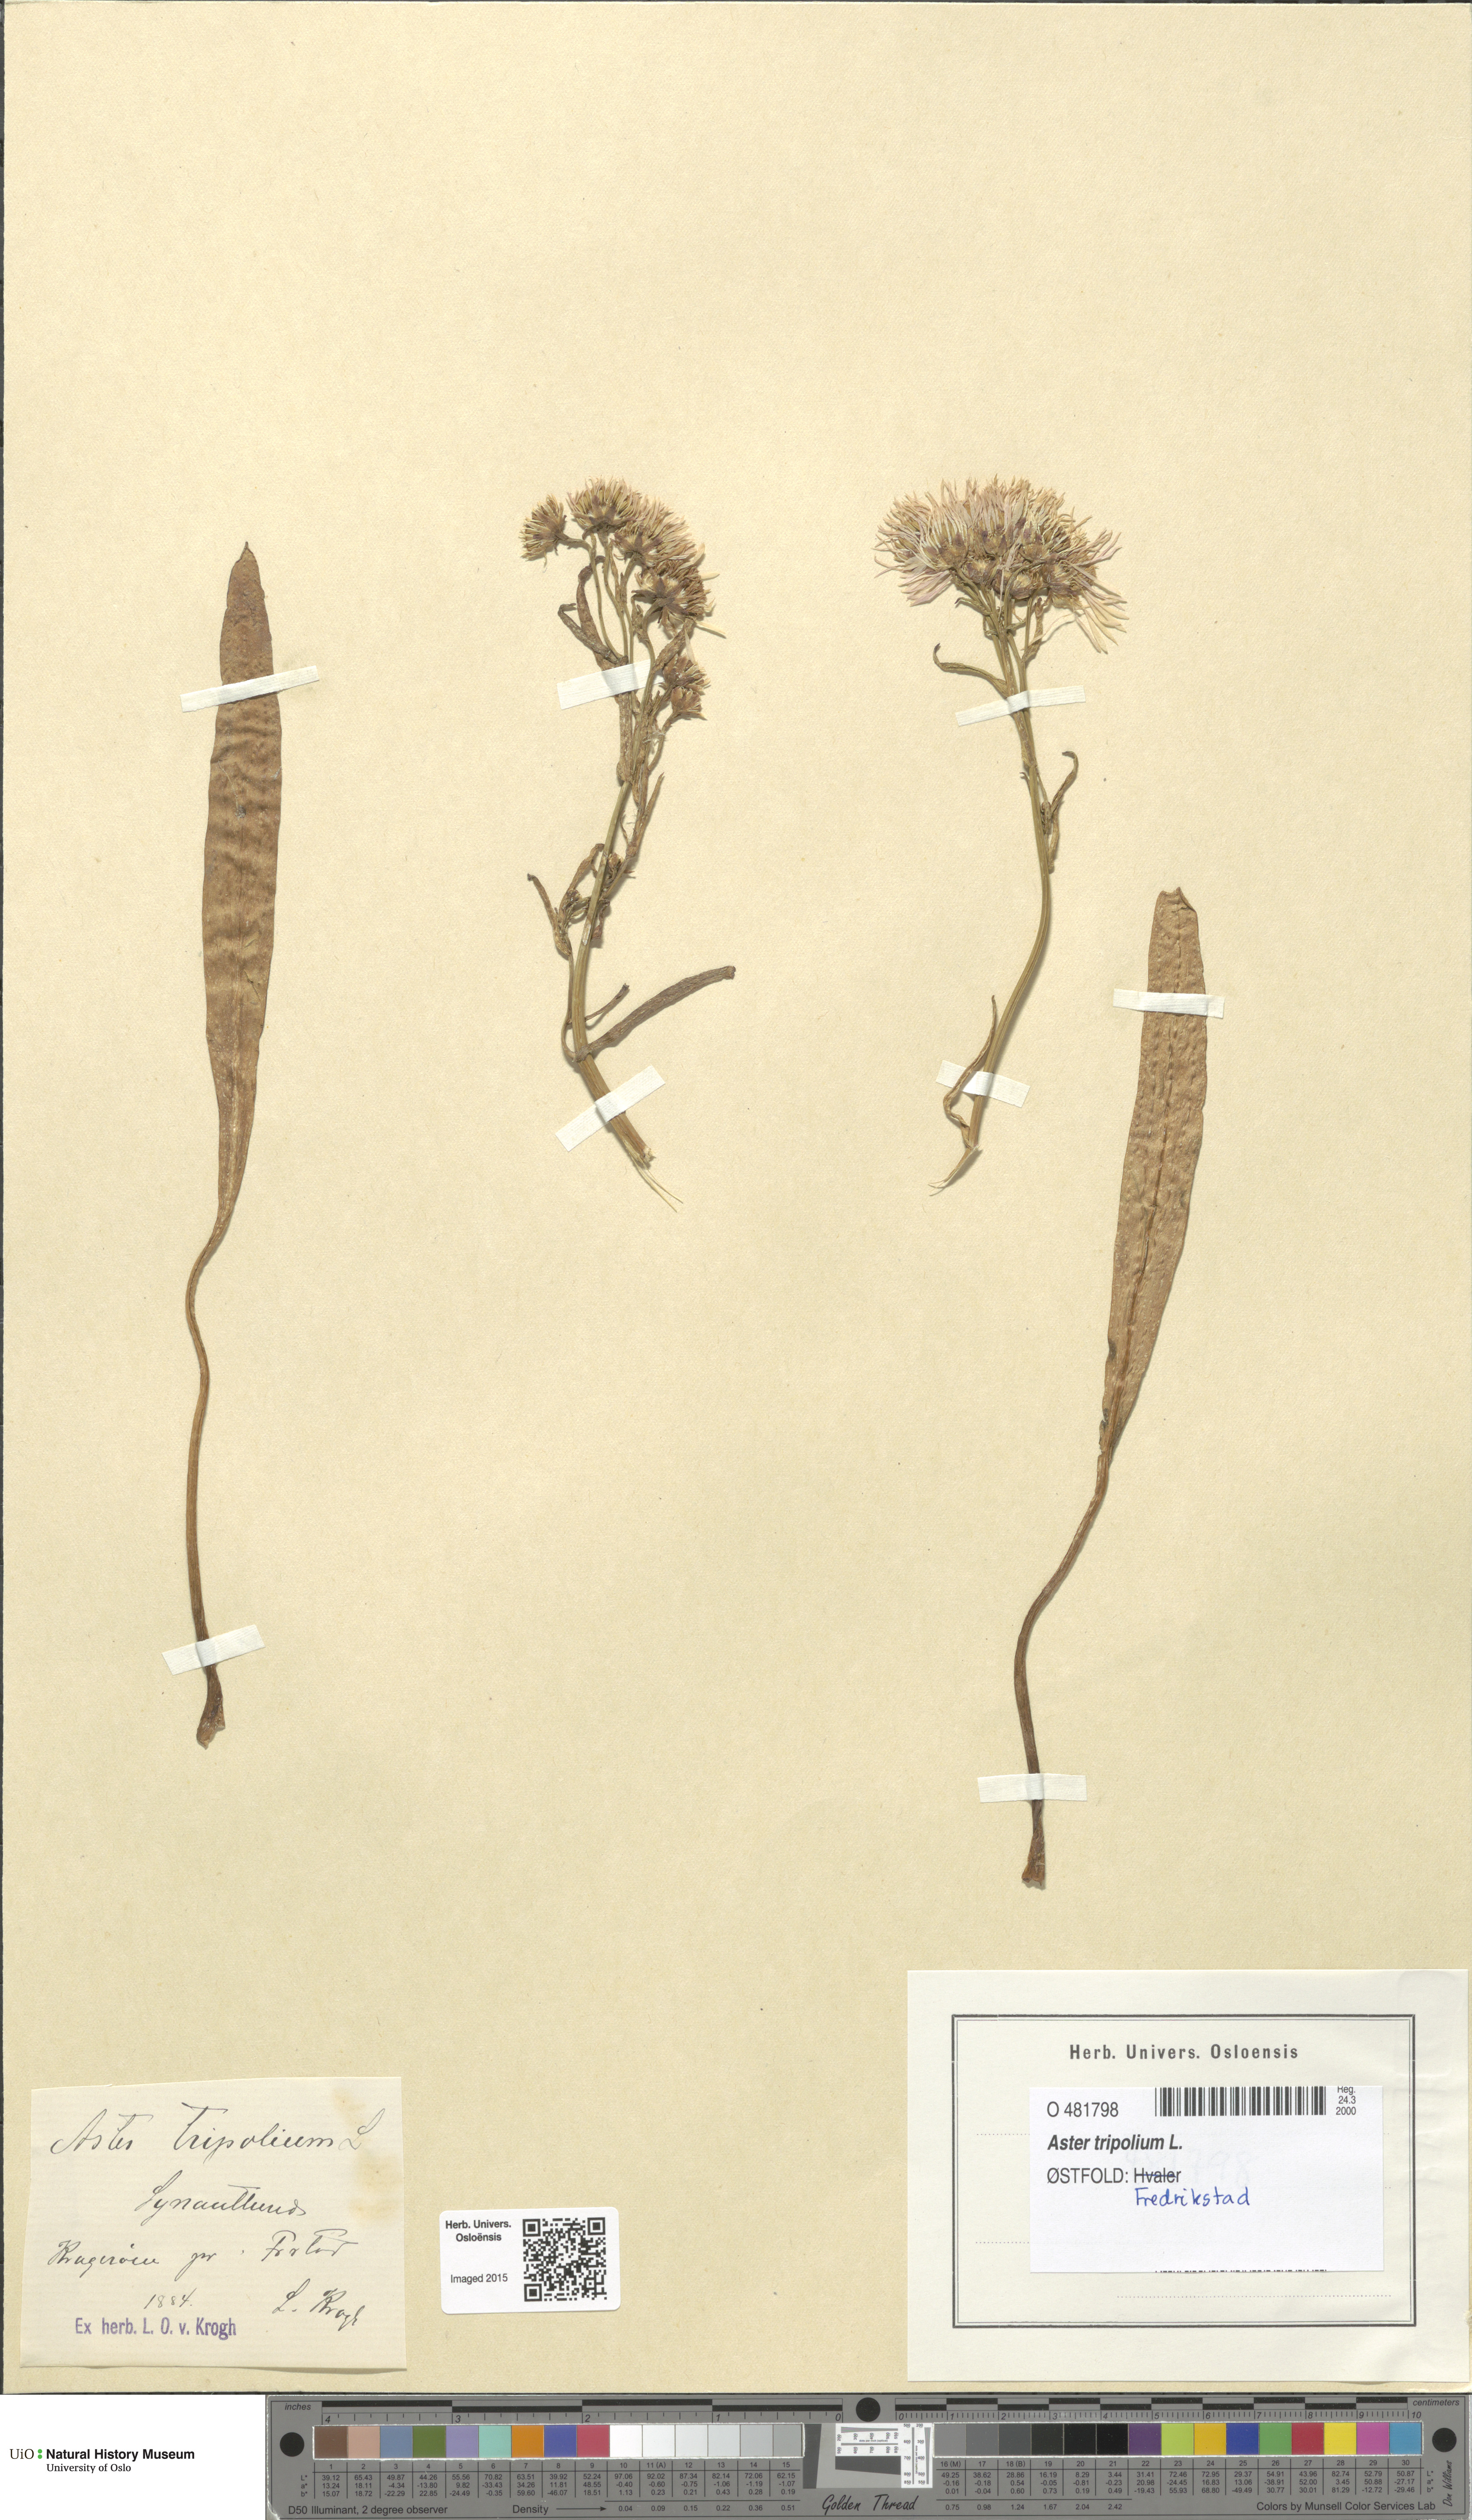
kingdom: Plantae
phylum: Tracheophyta
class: Magnoliopsida
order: Asterales
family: Asteraceae
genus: Tripolium
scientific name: Tripolium pannonicum
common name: Sea aster
